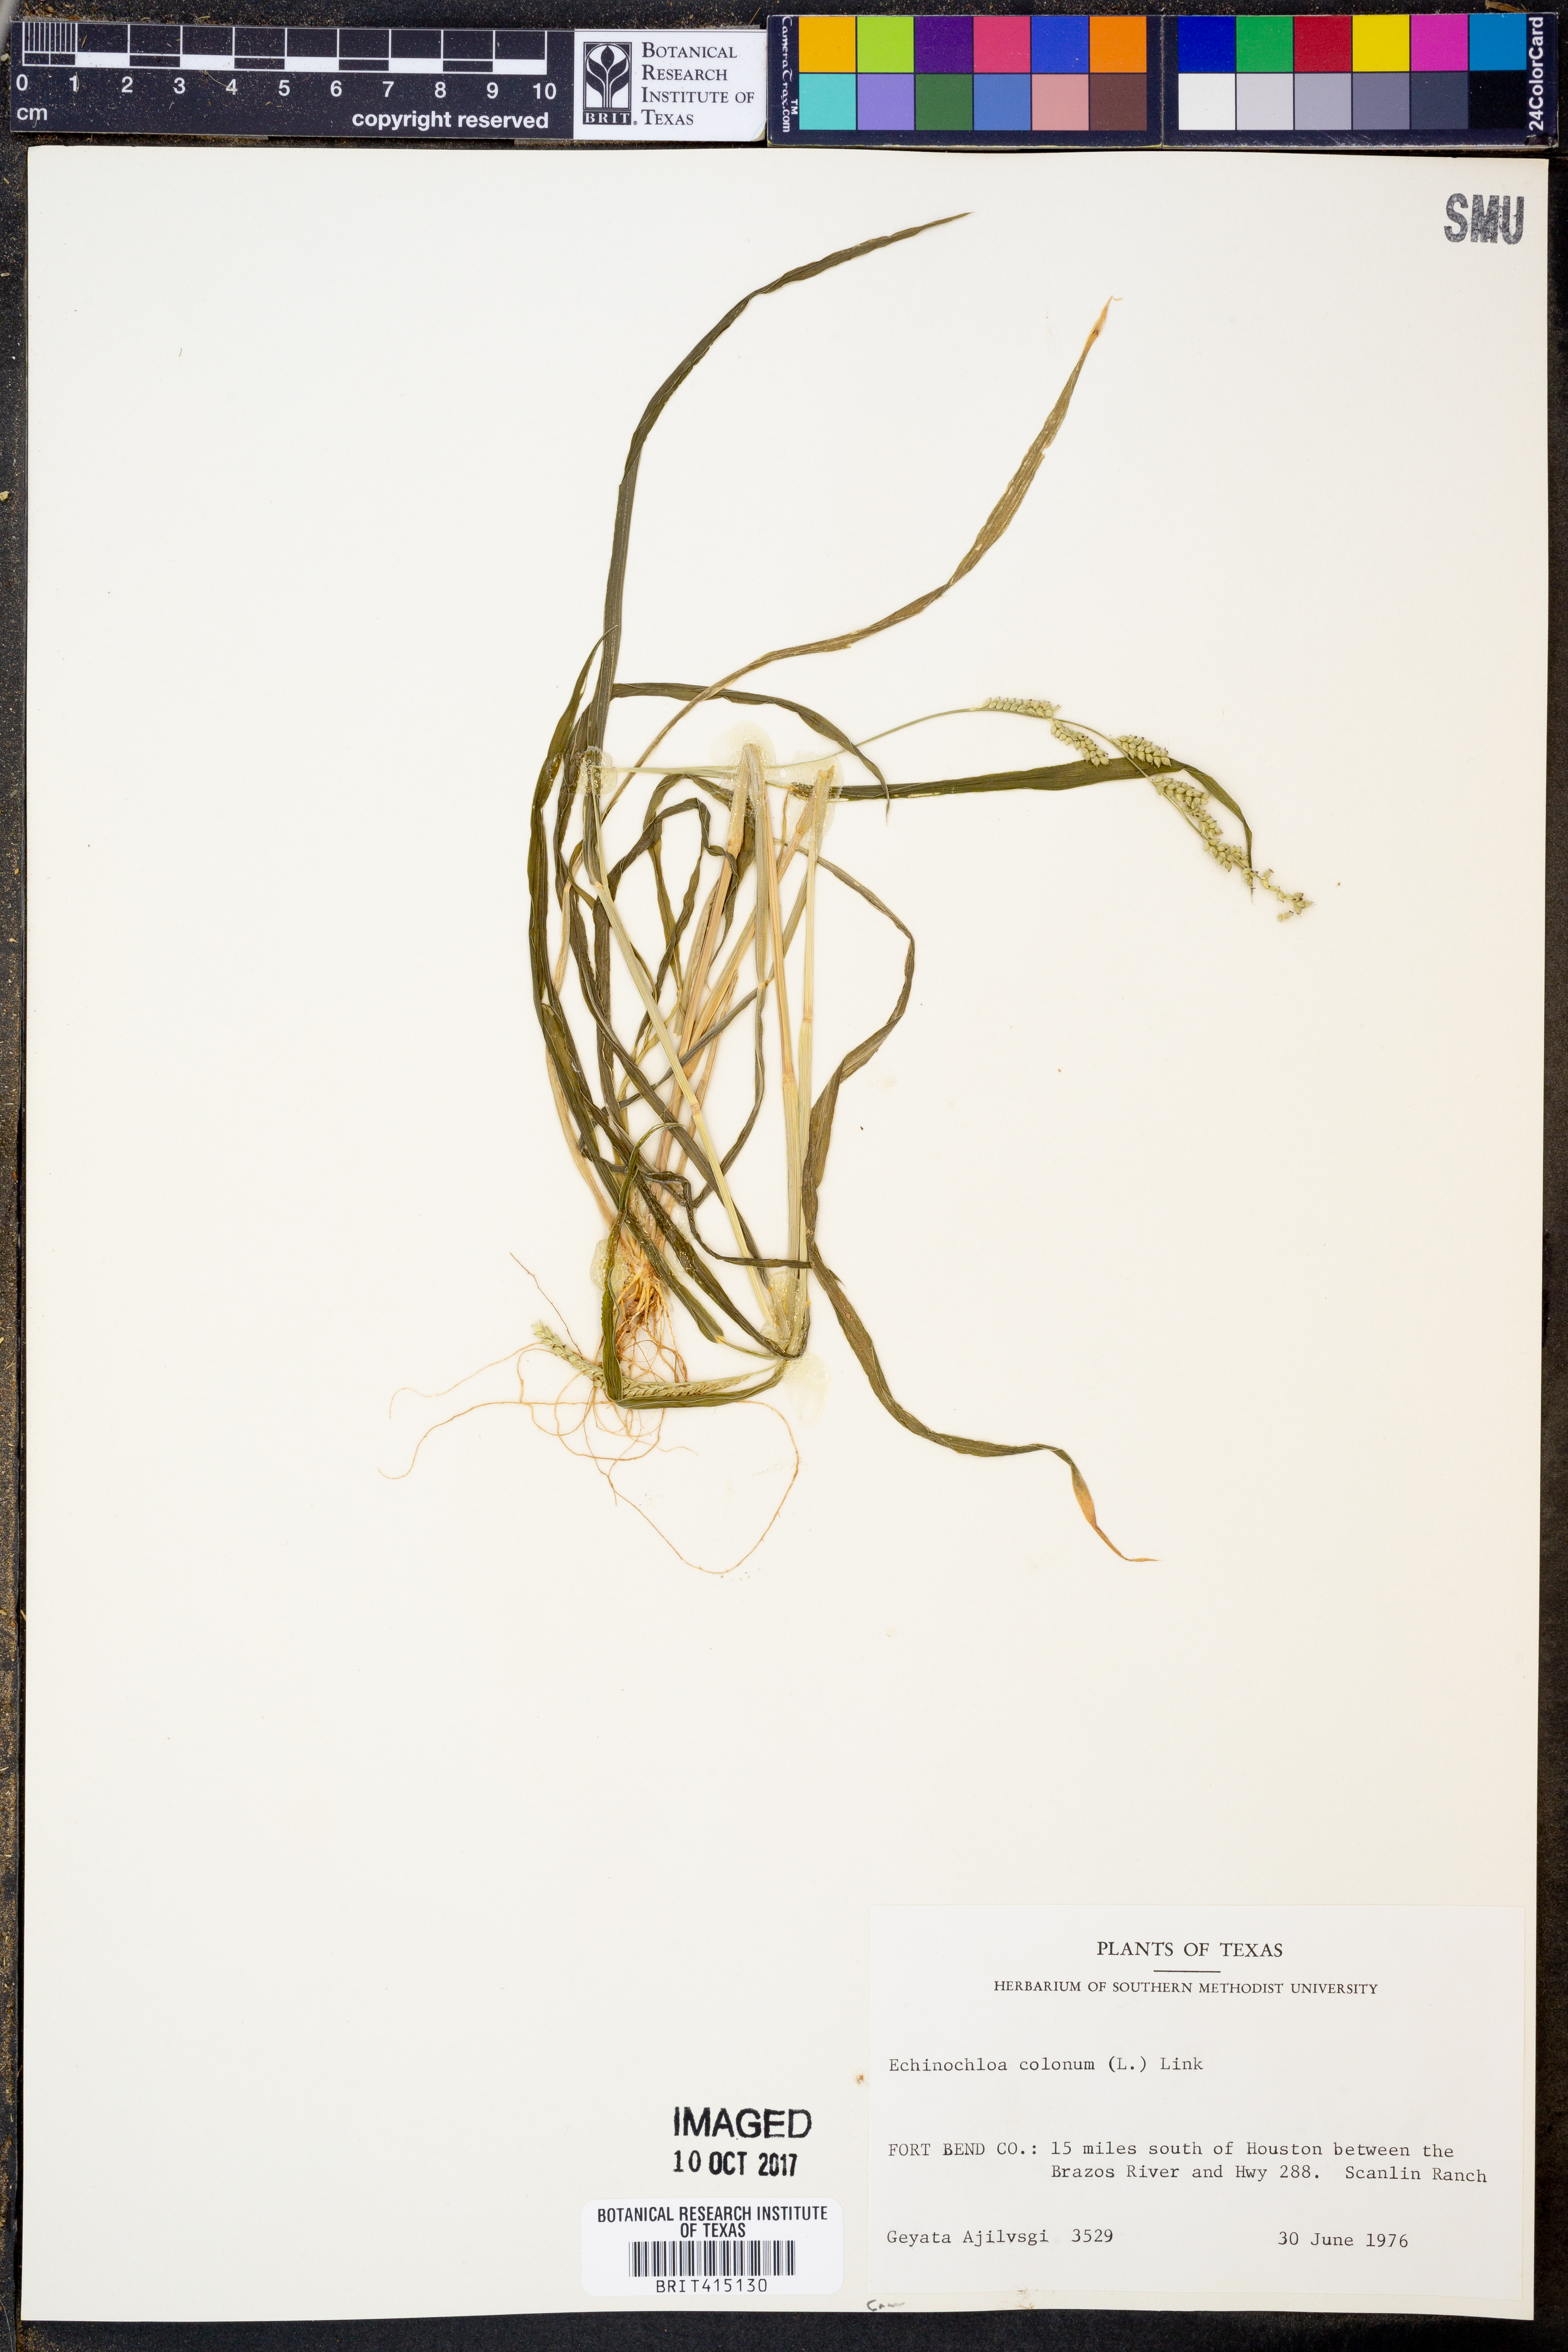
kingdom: Plantae
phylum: Tracheophyta
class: Liliopsida
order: Poales
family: Poaceae
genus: Echinochloa
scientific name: Echinochloa colonum
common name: Jungle rice
